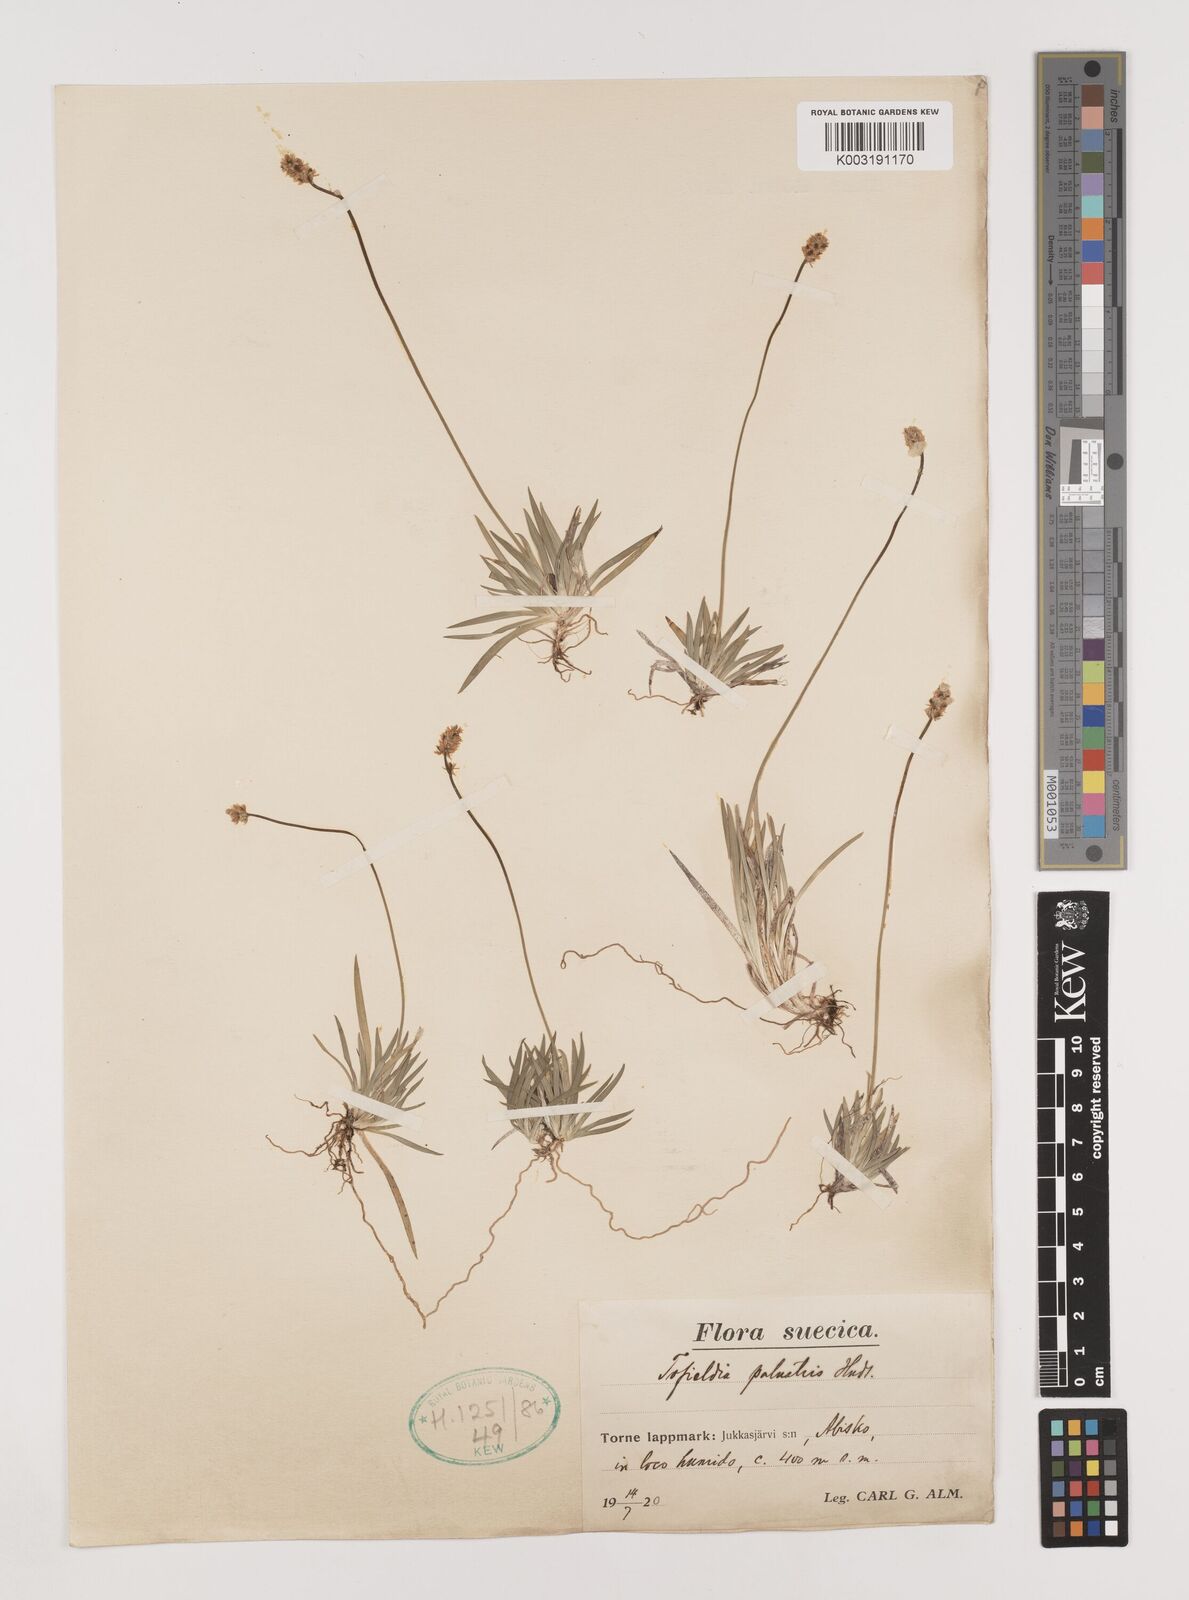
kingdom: Plantae
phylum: Tracheophyta
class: Liliopsida
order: Alismatales
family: Tofieldiaceae
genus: Tofieldia
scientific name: Tofieldia pusilla
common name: Scottish false asphodel
